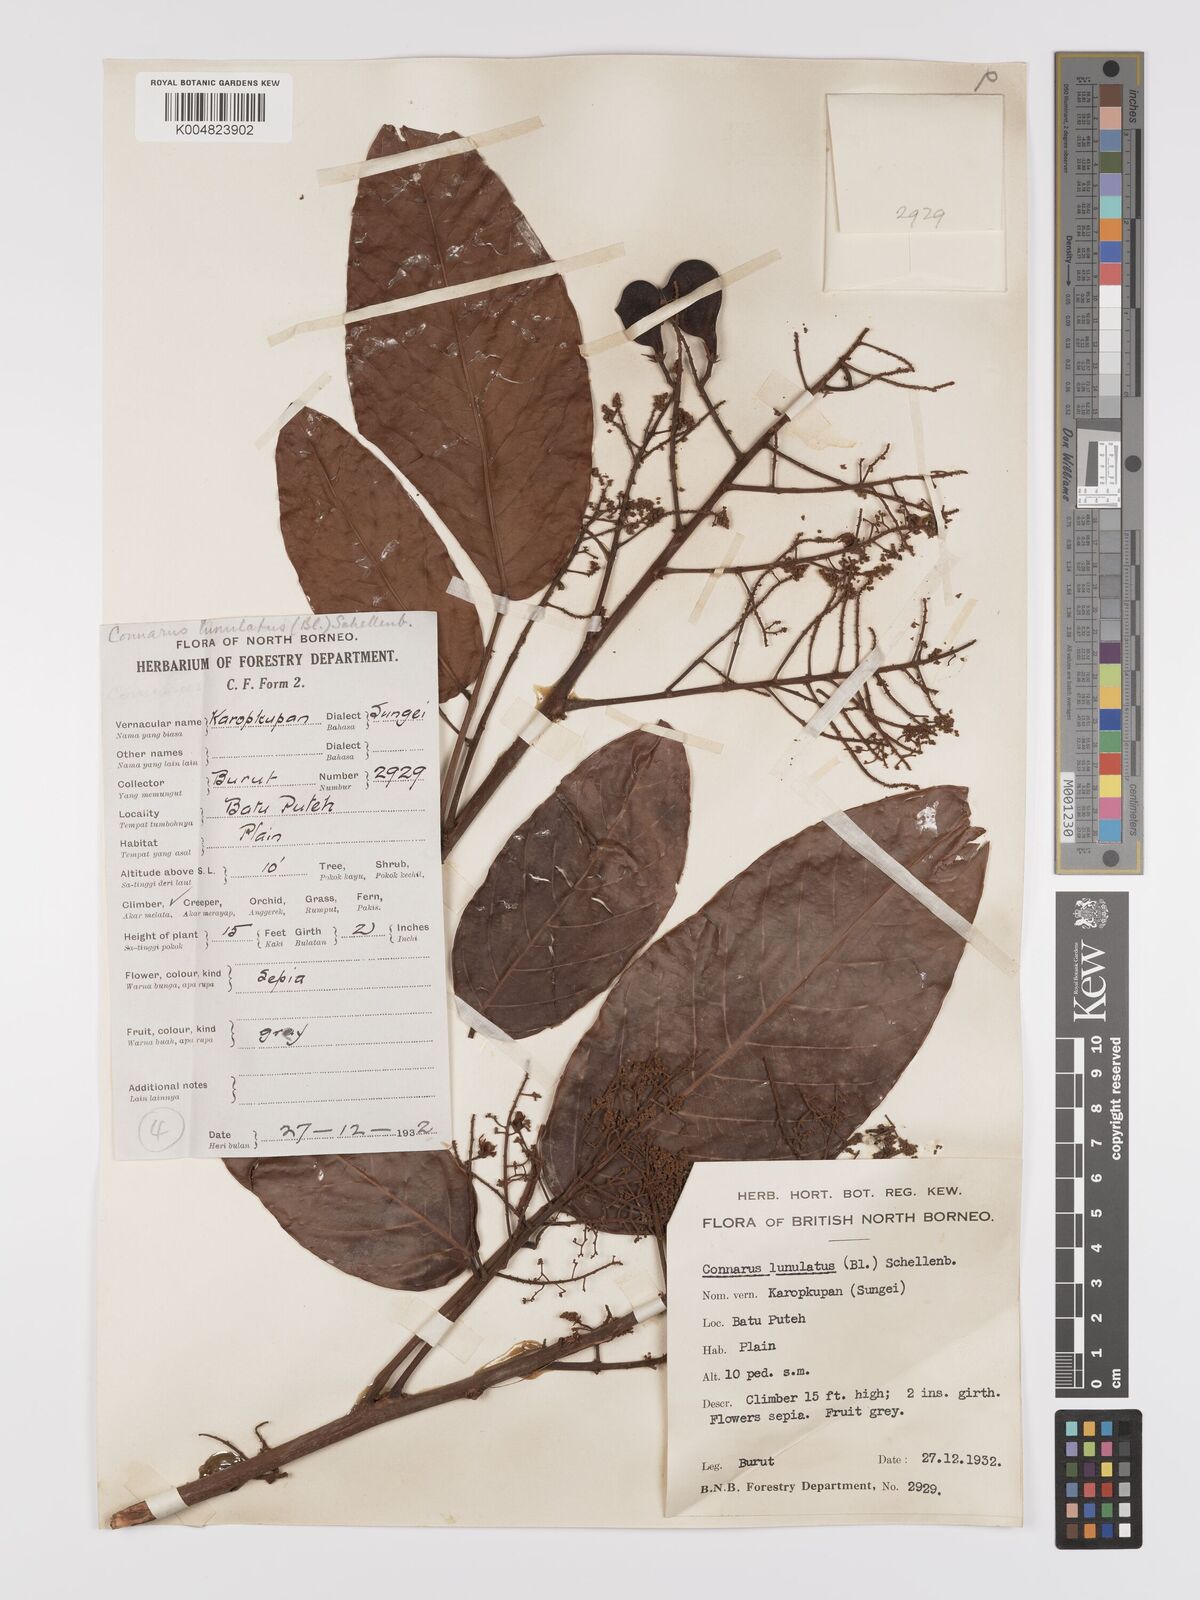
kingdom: Plantae
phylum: Tracheophyta
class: Magnoliopsida
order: Oxalidales
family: Connaraceae
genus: Connarus
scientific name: Connarus grandis
